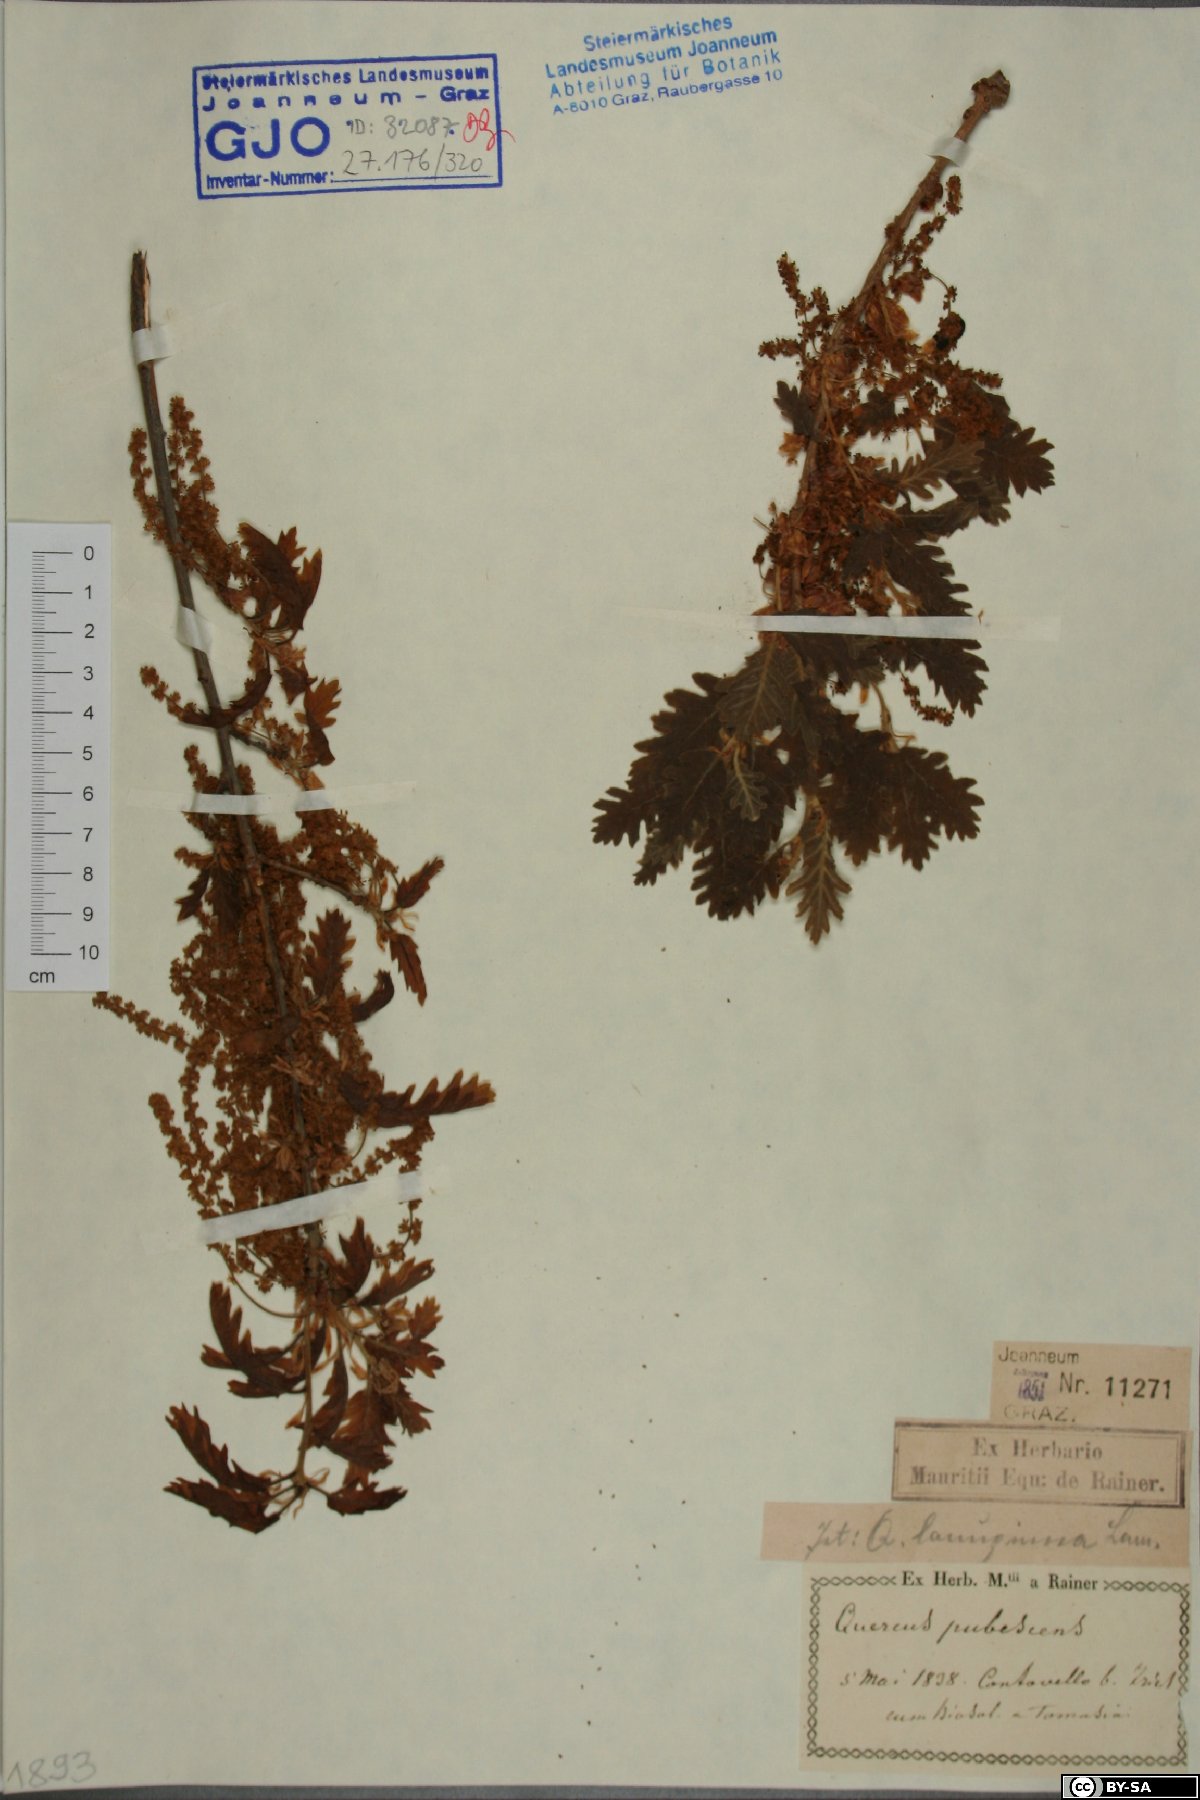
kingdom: Plantae
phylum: Tracheophyta
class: Magnoliopsida
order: Fagales
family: Fagaceae
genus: Quercus
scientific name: Quercus pubescens
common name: Downy oak
